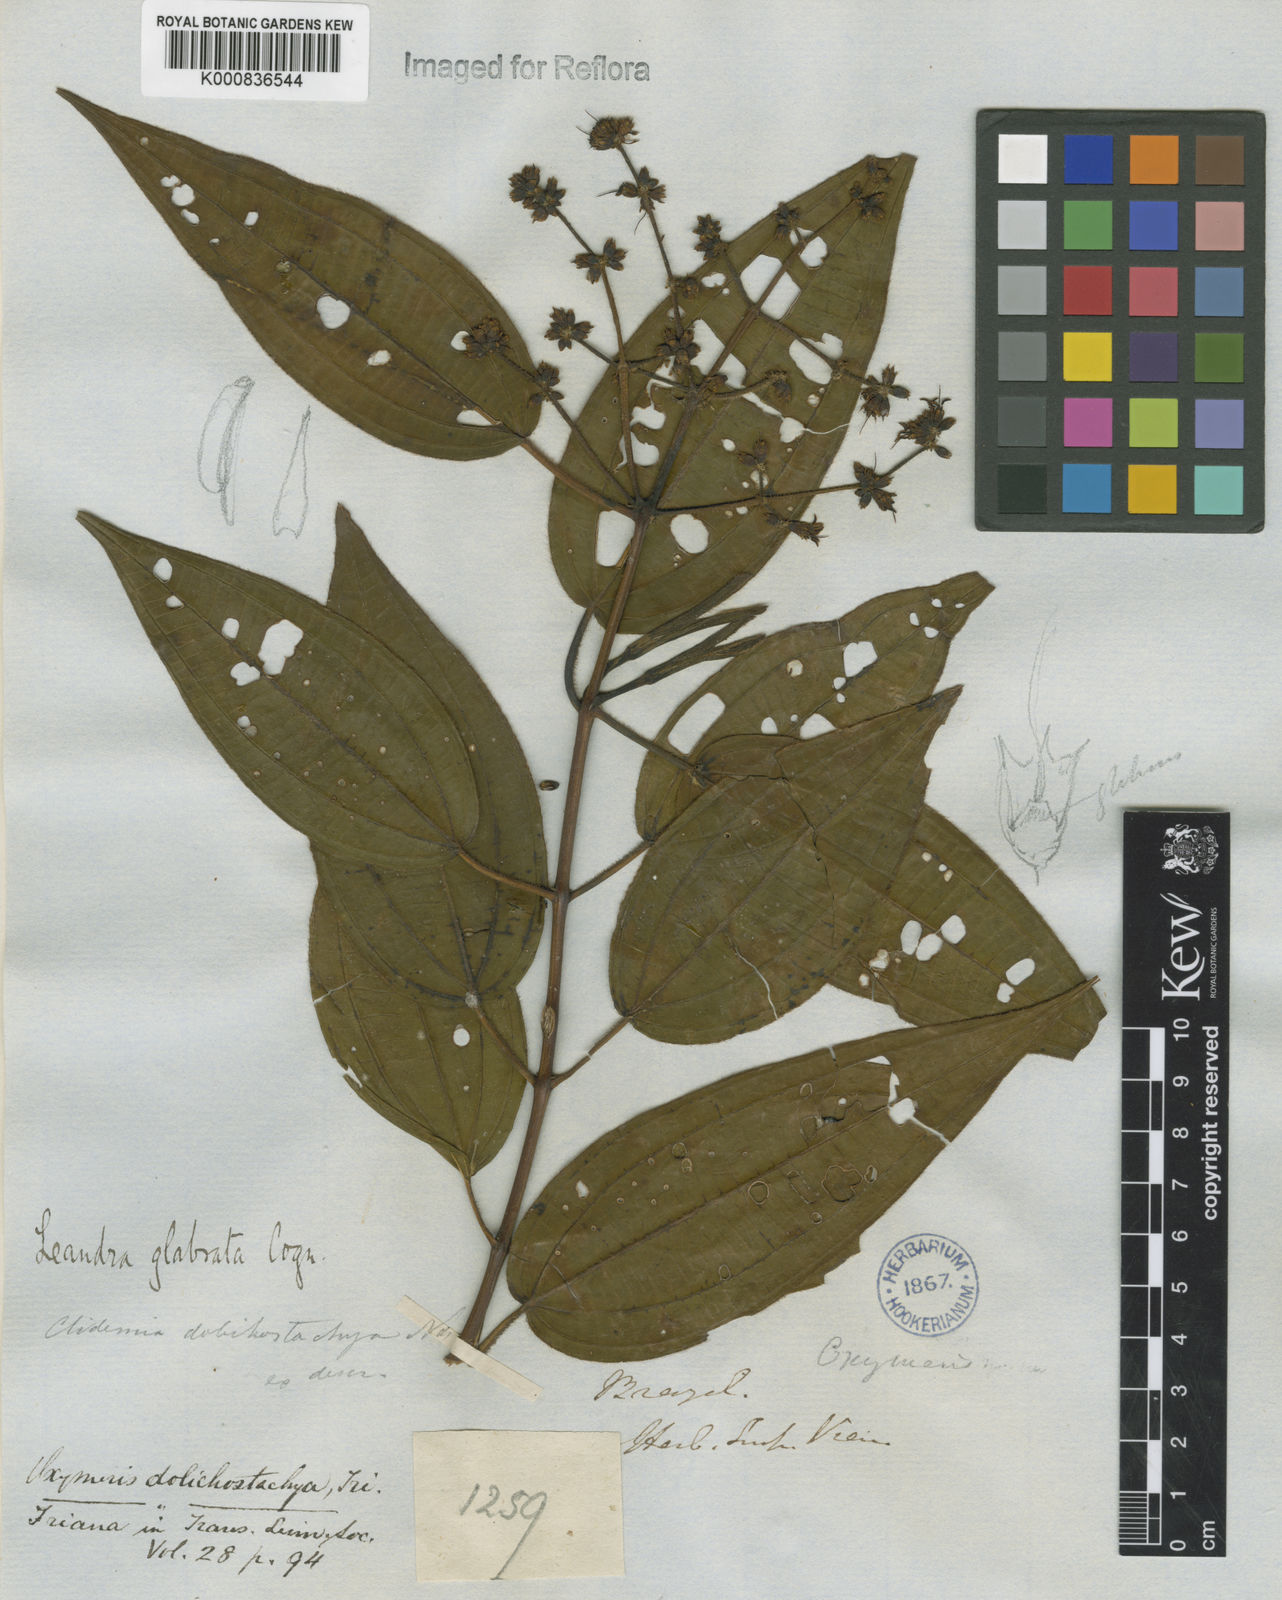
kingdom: Plantae
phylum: Tracheophyta
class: Magnoliopsida
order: Myrtales
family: Melastomataceae
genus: Miconia
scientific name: Miconia dolichostachya
